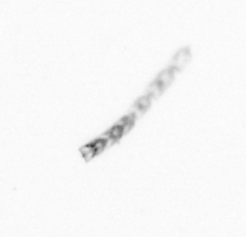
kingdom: Animalia
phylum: Cnidaria
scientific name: Cnidaria
